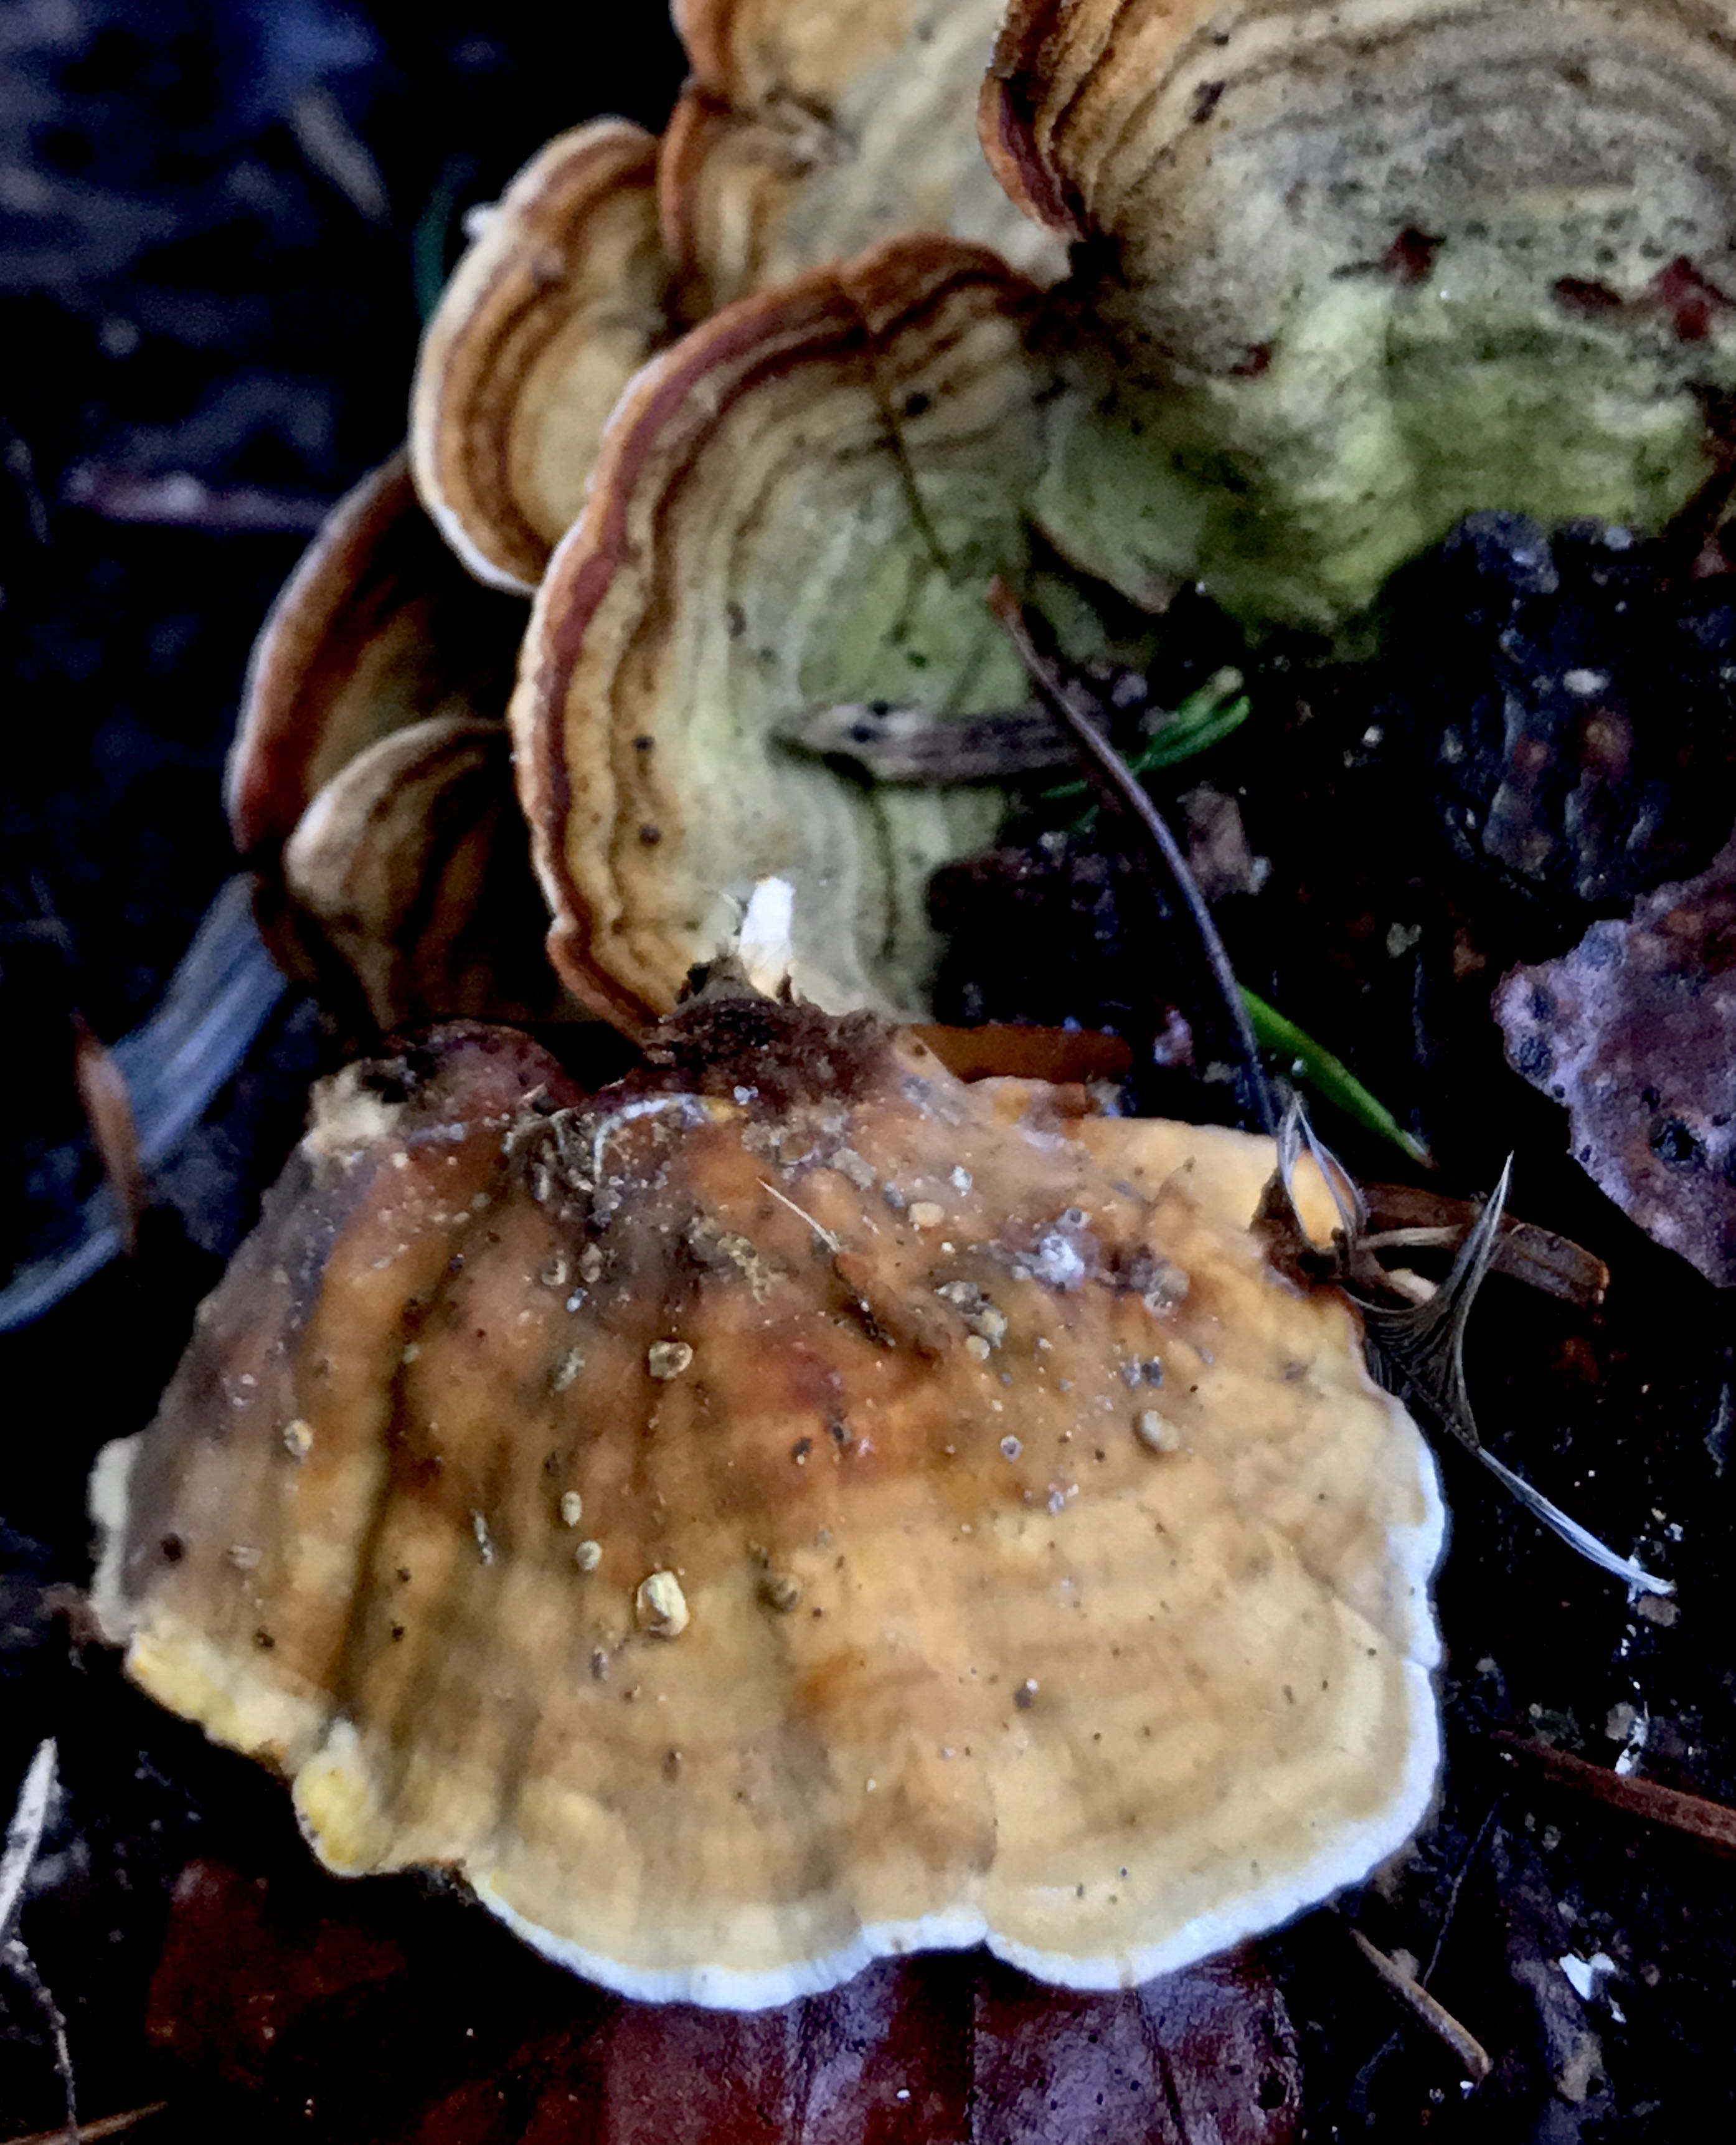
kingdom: Fungi
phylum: Basidiomycota
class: Agaricomycetes
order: Russulales
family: Stereaceae
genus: Stereum
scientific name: Stereum subtomentosum
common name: smuk lædersvamp
